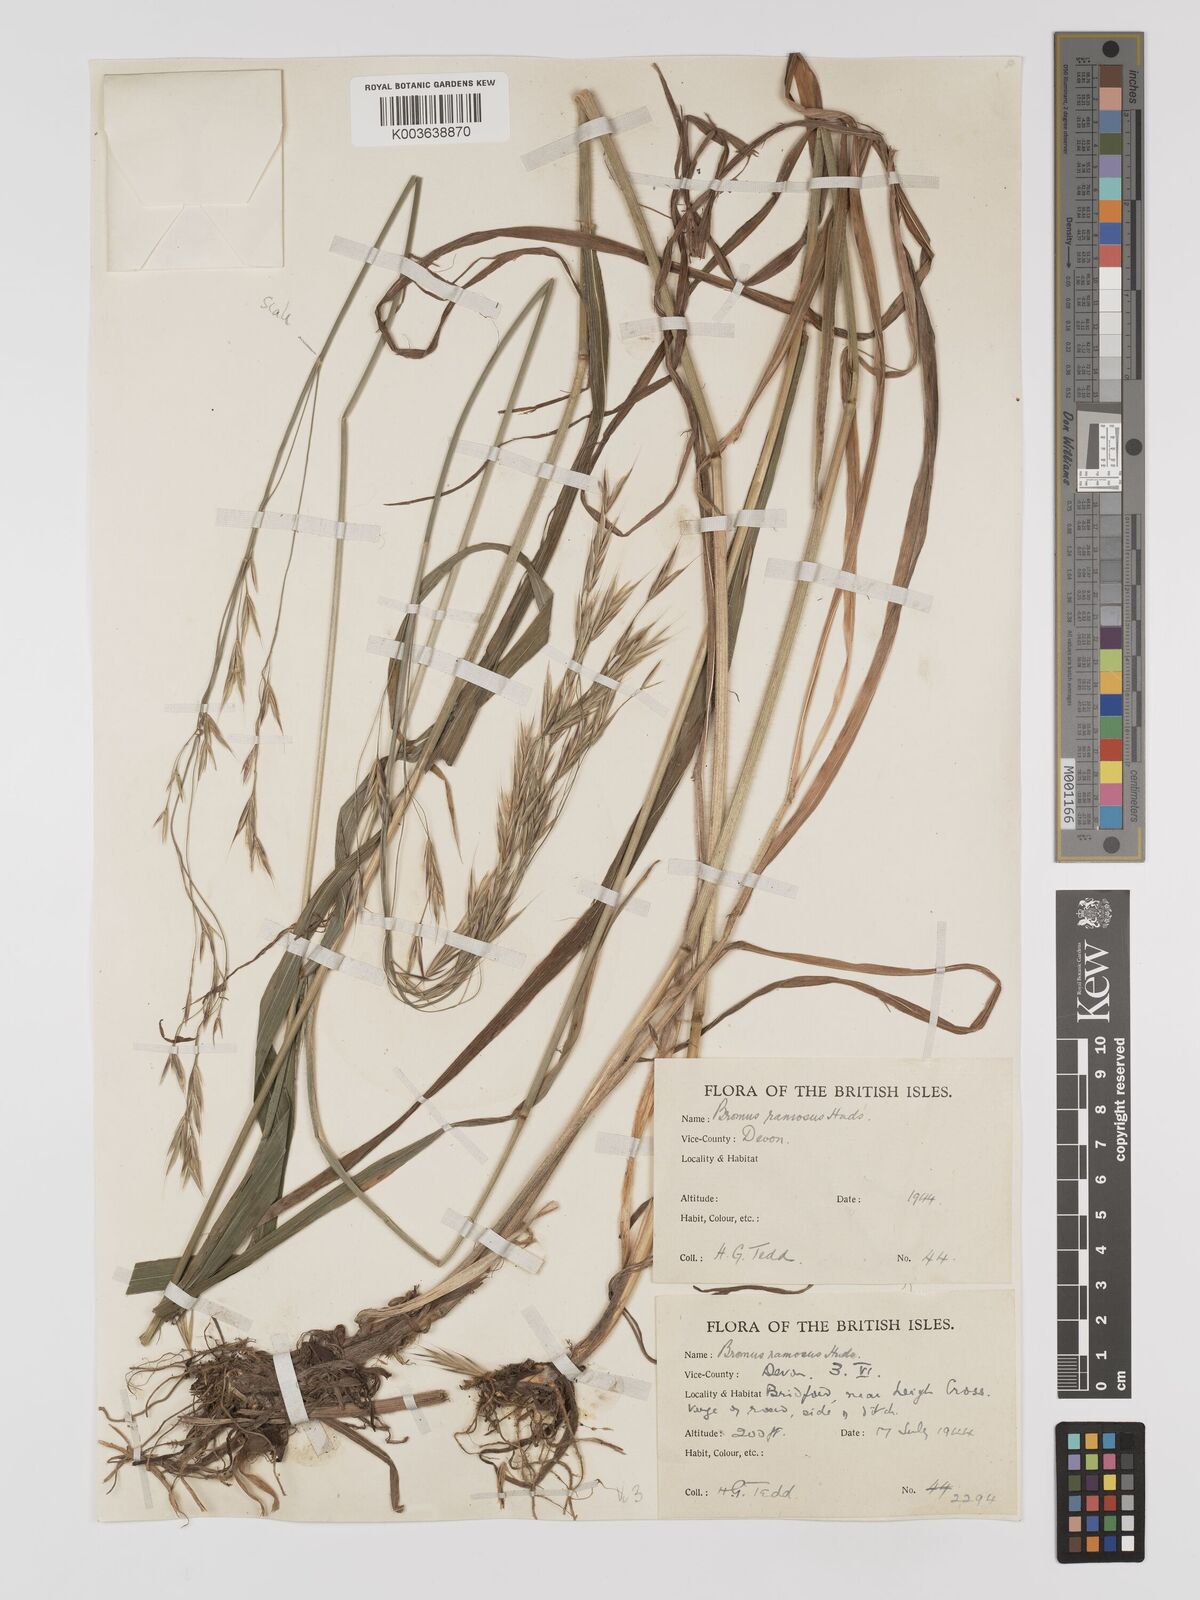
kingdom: Plantae
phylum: Tracheophyta
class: Liliopsida
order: Poales
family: Poaceae
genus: Brachypodium
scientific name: Brachypodium retusum
